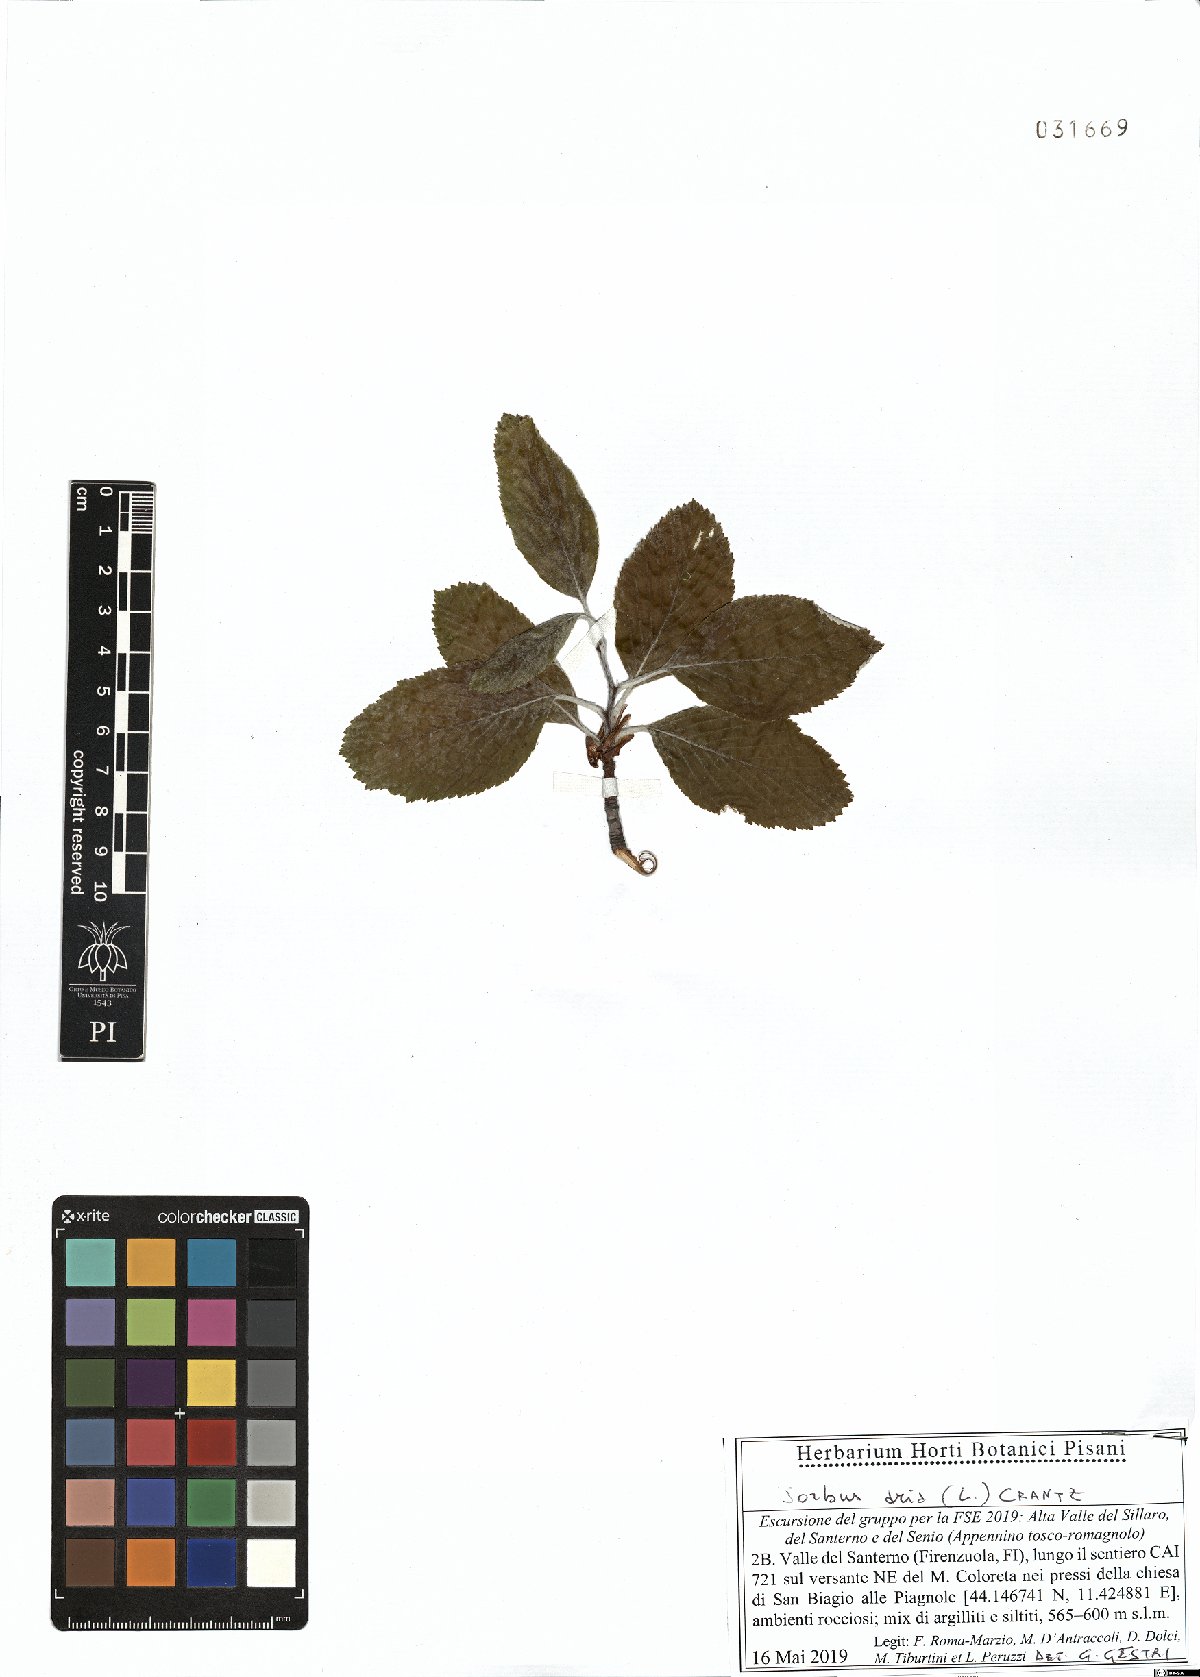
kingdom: Plantae
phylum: Tracheophyta
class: Magnoliopsida
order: Rosales
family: Rosaceae
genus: Aria
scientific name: Aria edulis
